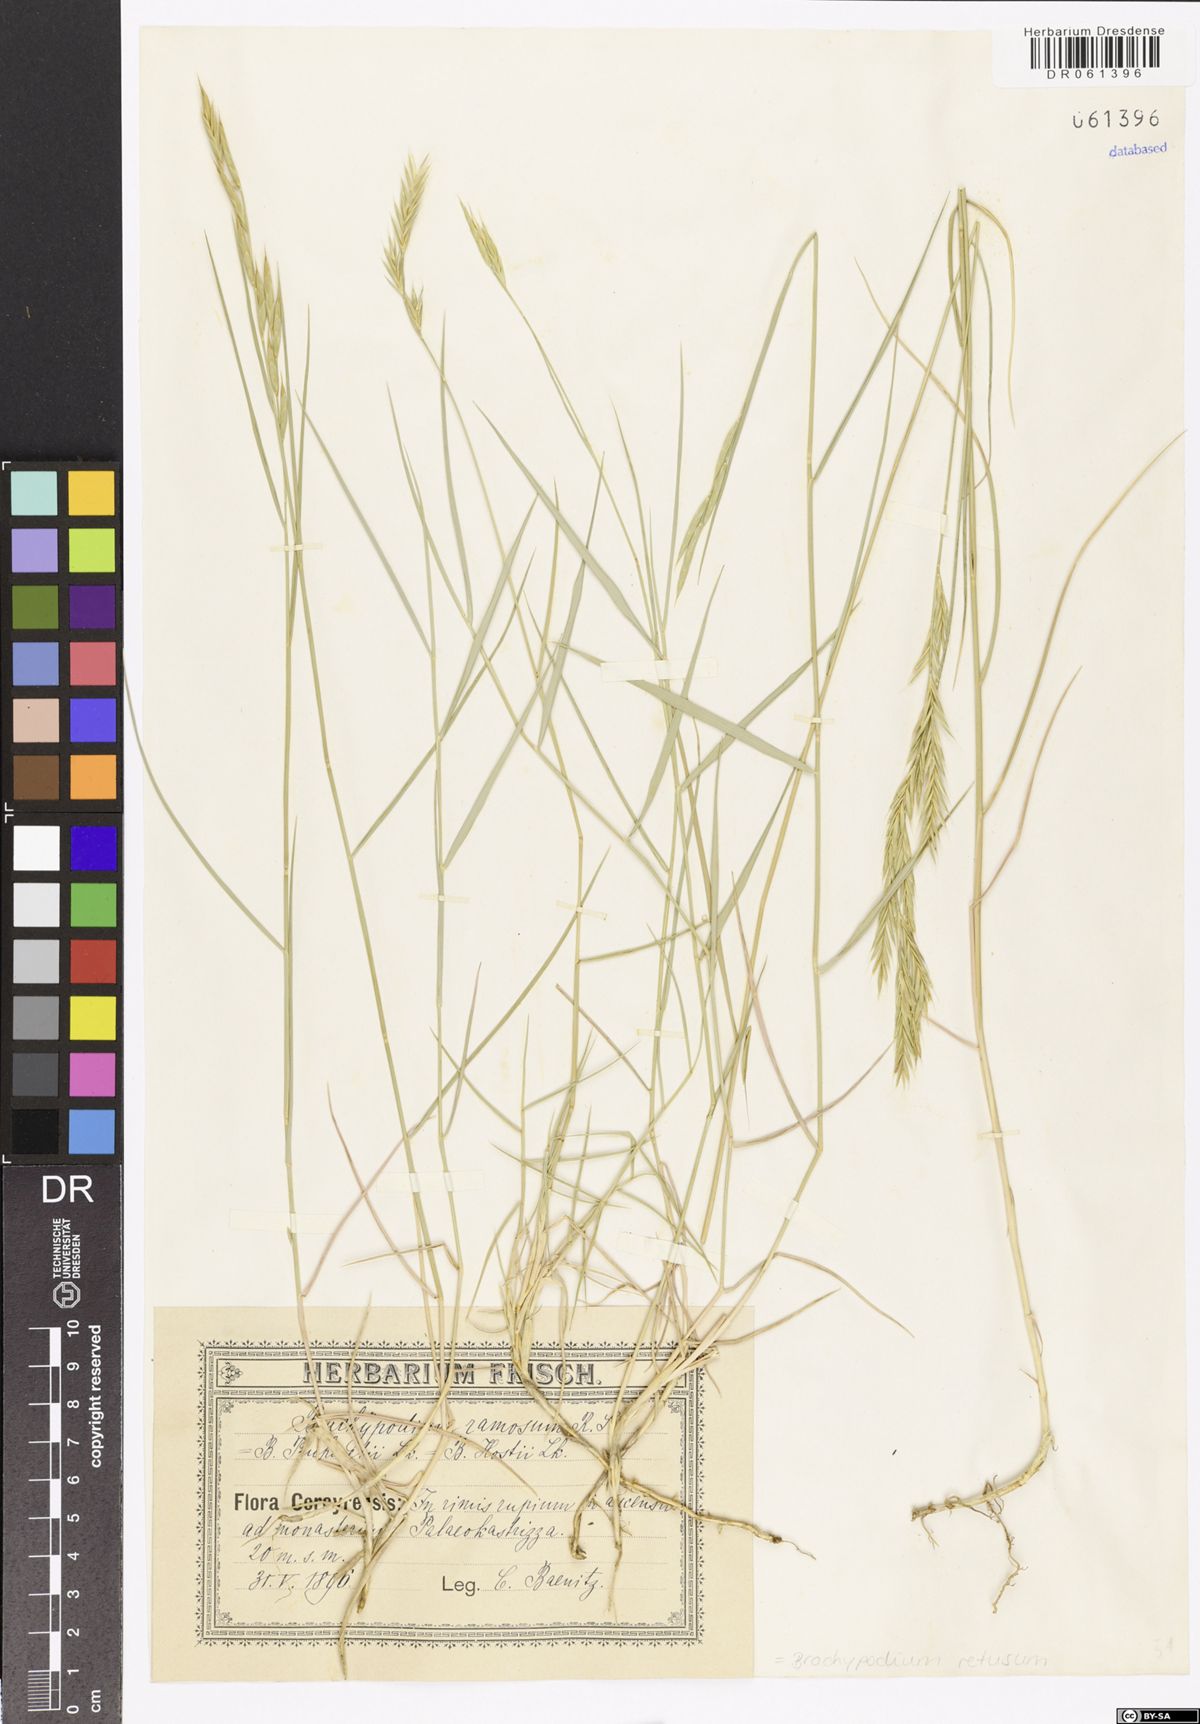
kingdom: Plantae
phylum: Tracheophyta
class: Liliopsida
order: Poales
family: Poaceae
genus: Brachypodium
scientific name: Brachypodium retusum
